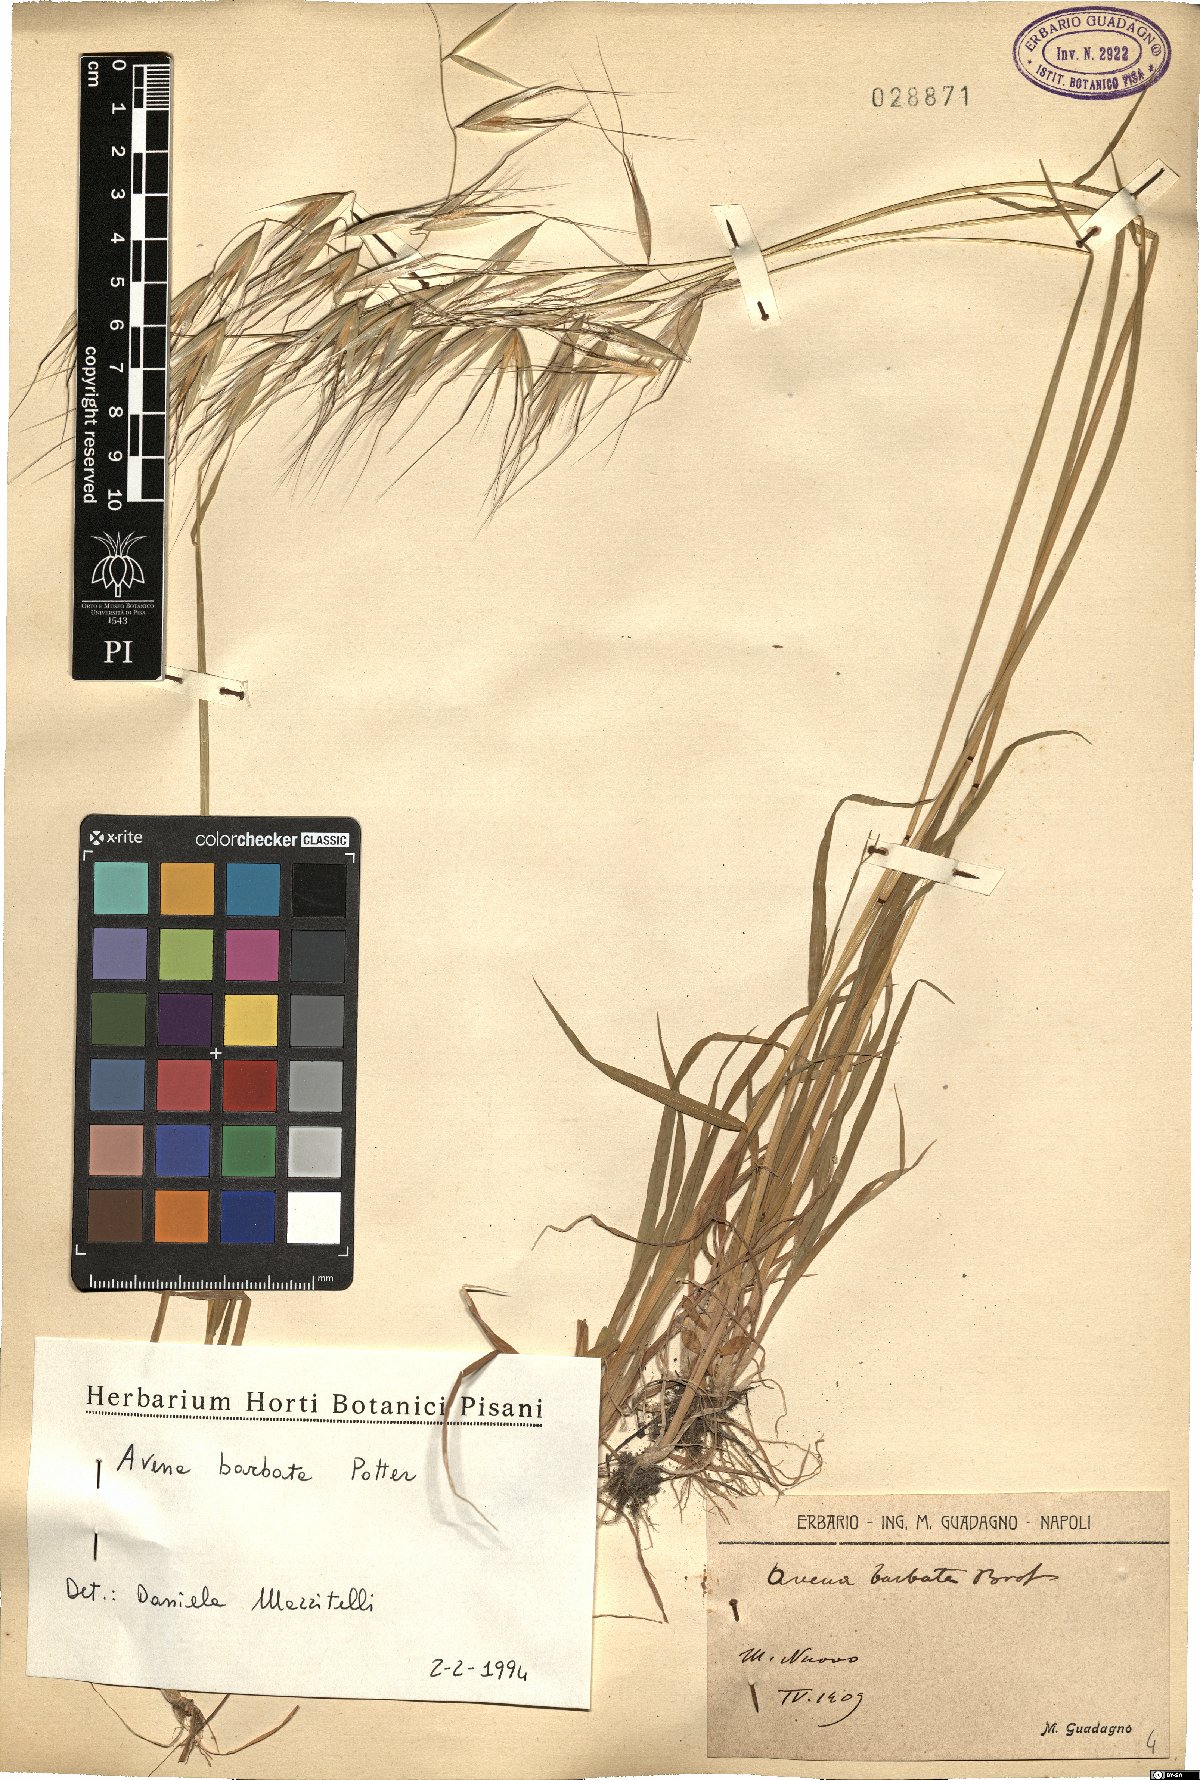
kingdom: Plantae
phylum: Tracheophyta
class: Liliopsida
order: Poales
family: Poaceae
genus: Avena
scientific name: Avena barbata
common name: Slender oat
